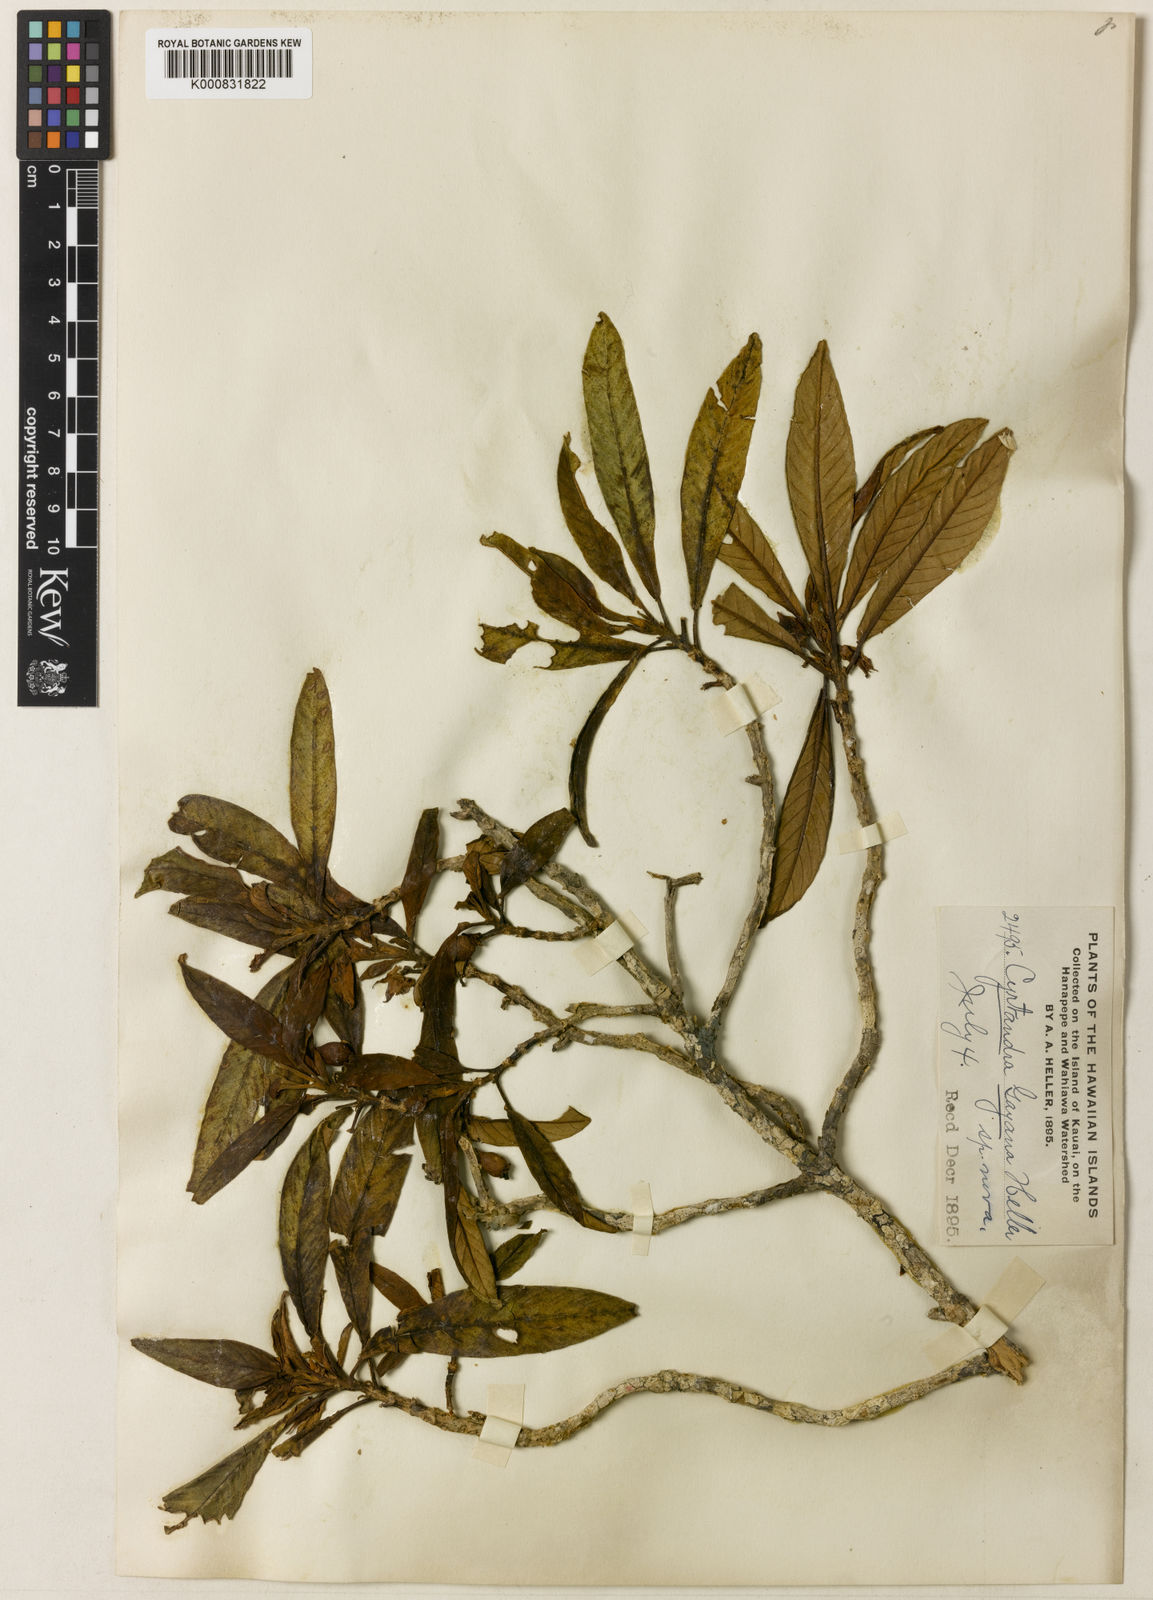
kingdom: Plantae
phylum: Tracheophyta
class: Magnoliopsida
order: Lamiales
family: Gesneriaceae
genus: Cyrtandra
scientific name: Cyrtandra longifolia
